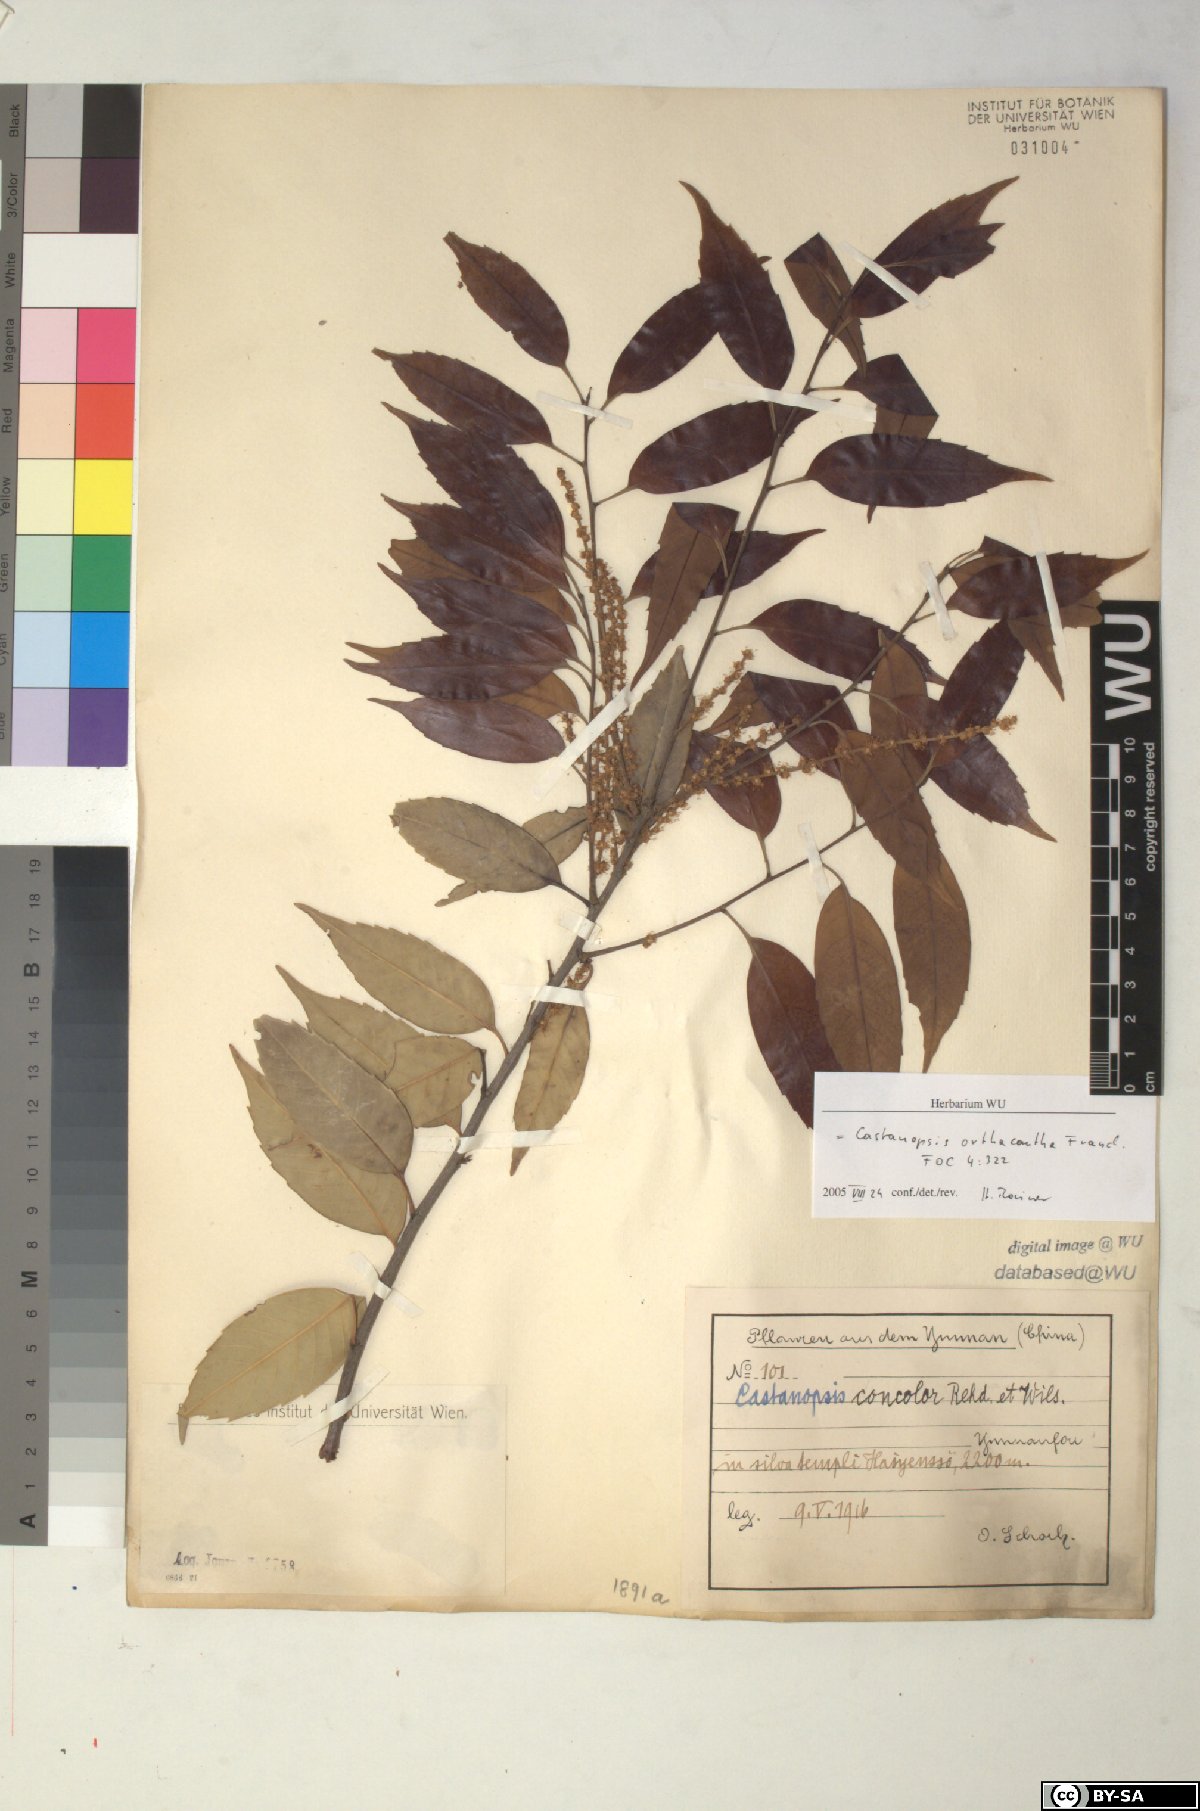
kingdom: Plantae
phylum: Tracheophyta
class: Magnoliopsida
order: Fagales
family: Fagaceae
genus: Castanopsis
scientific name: Castanopsis orthacantha
